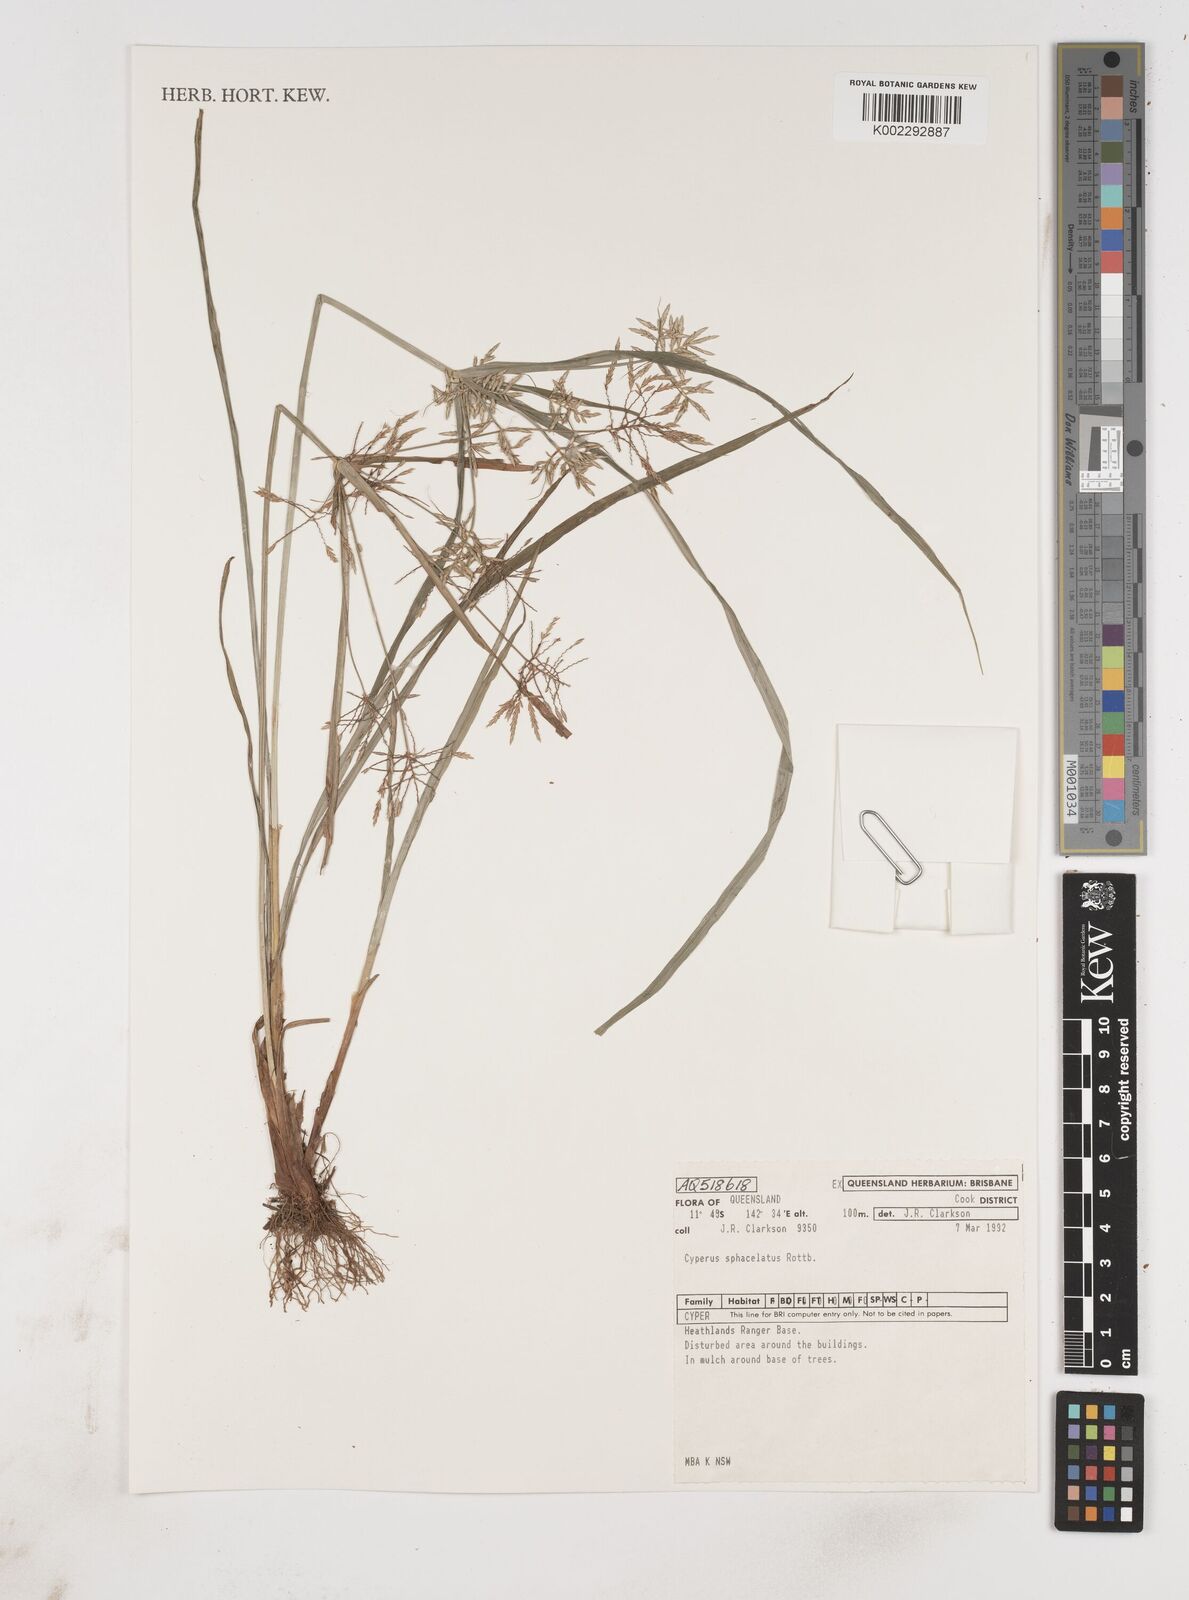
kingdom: Plantae
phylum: Tracheophyta
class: Liliopsida
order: Poales
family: Cyperaceae
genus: Cyperus
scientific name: Cyperus sphacelatus
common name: Roadside flatsedge
